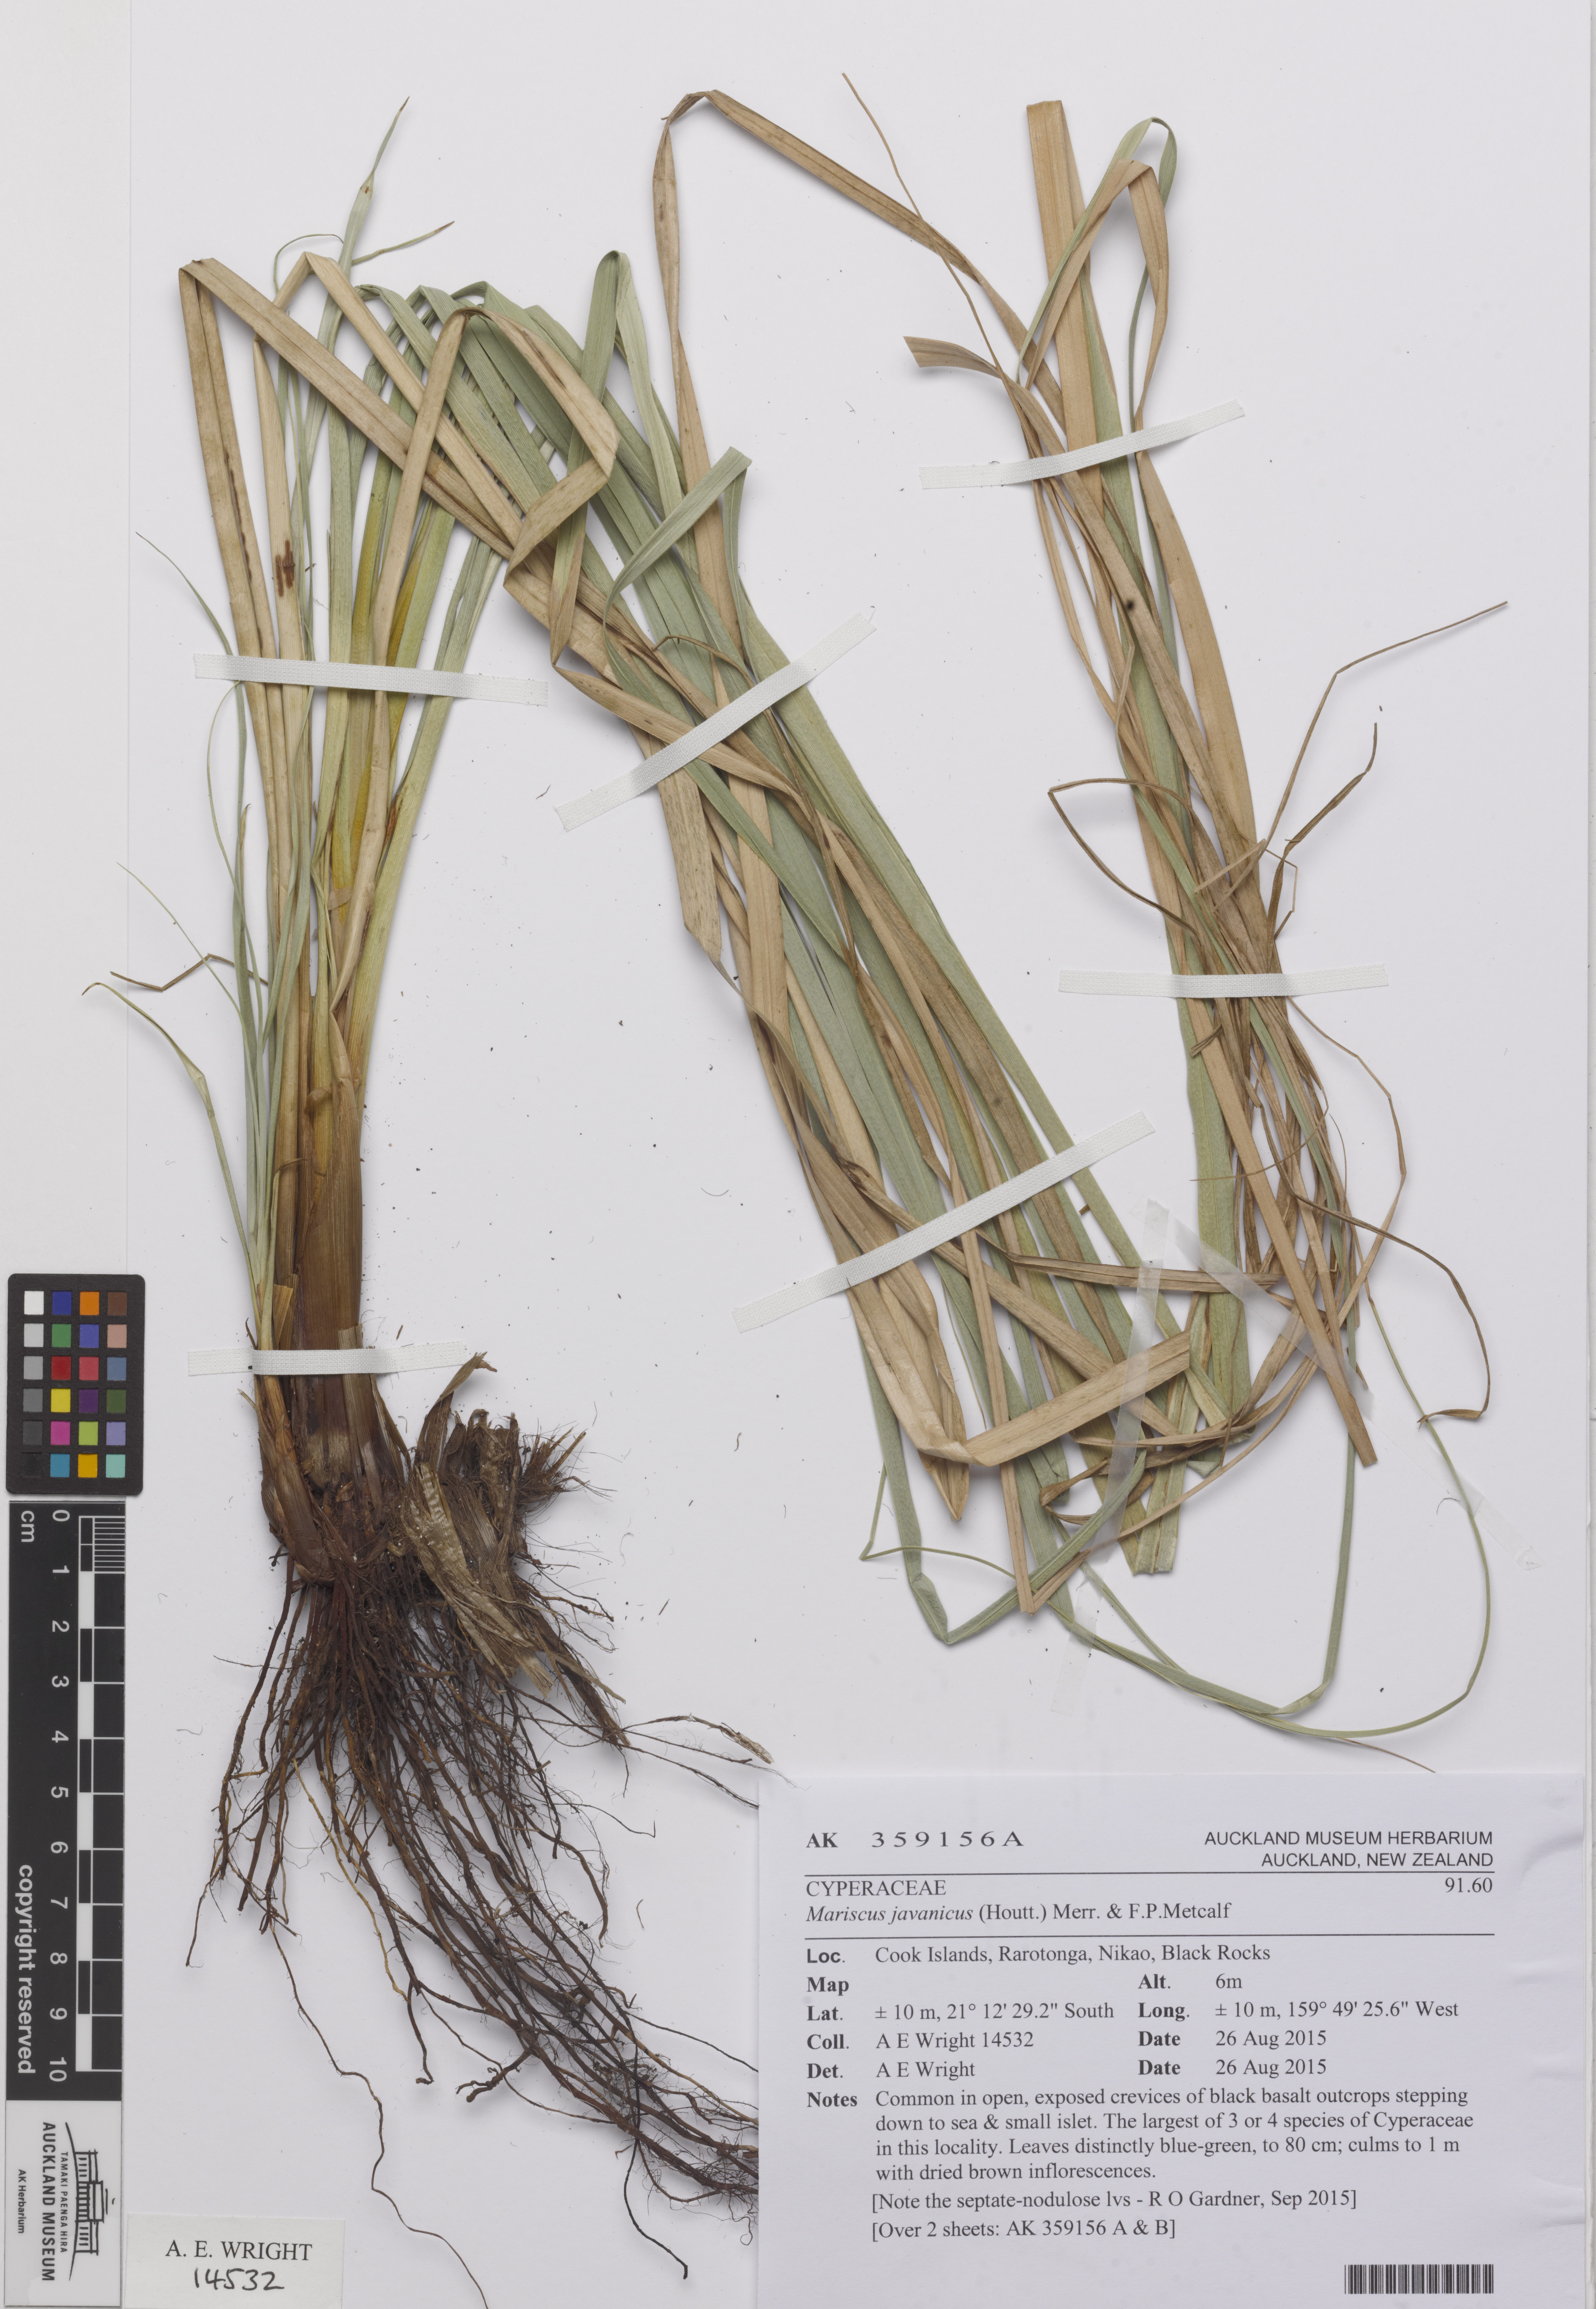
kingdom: Plantae
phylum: Tracheophyta
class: Liliopsida
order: Poales
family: Cyperaceae
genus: Cyperus
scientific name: Cyperus javanicus
